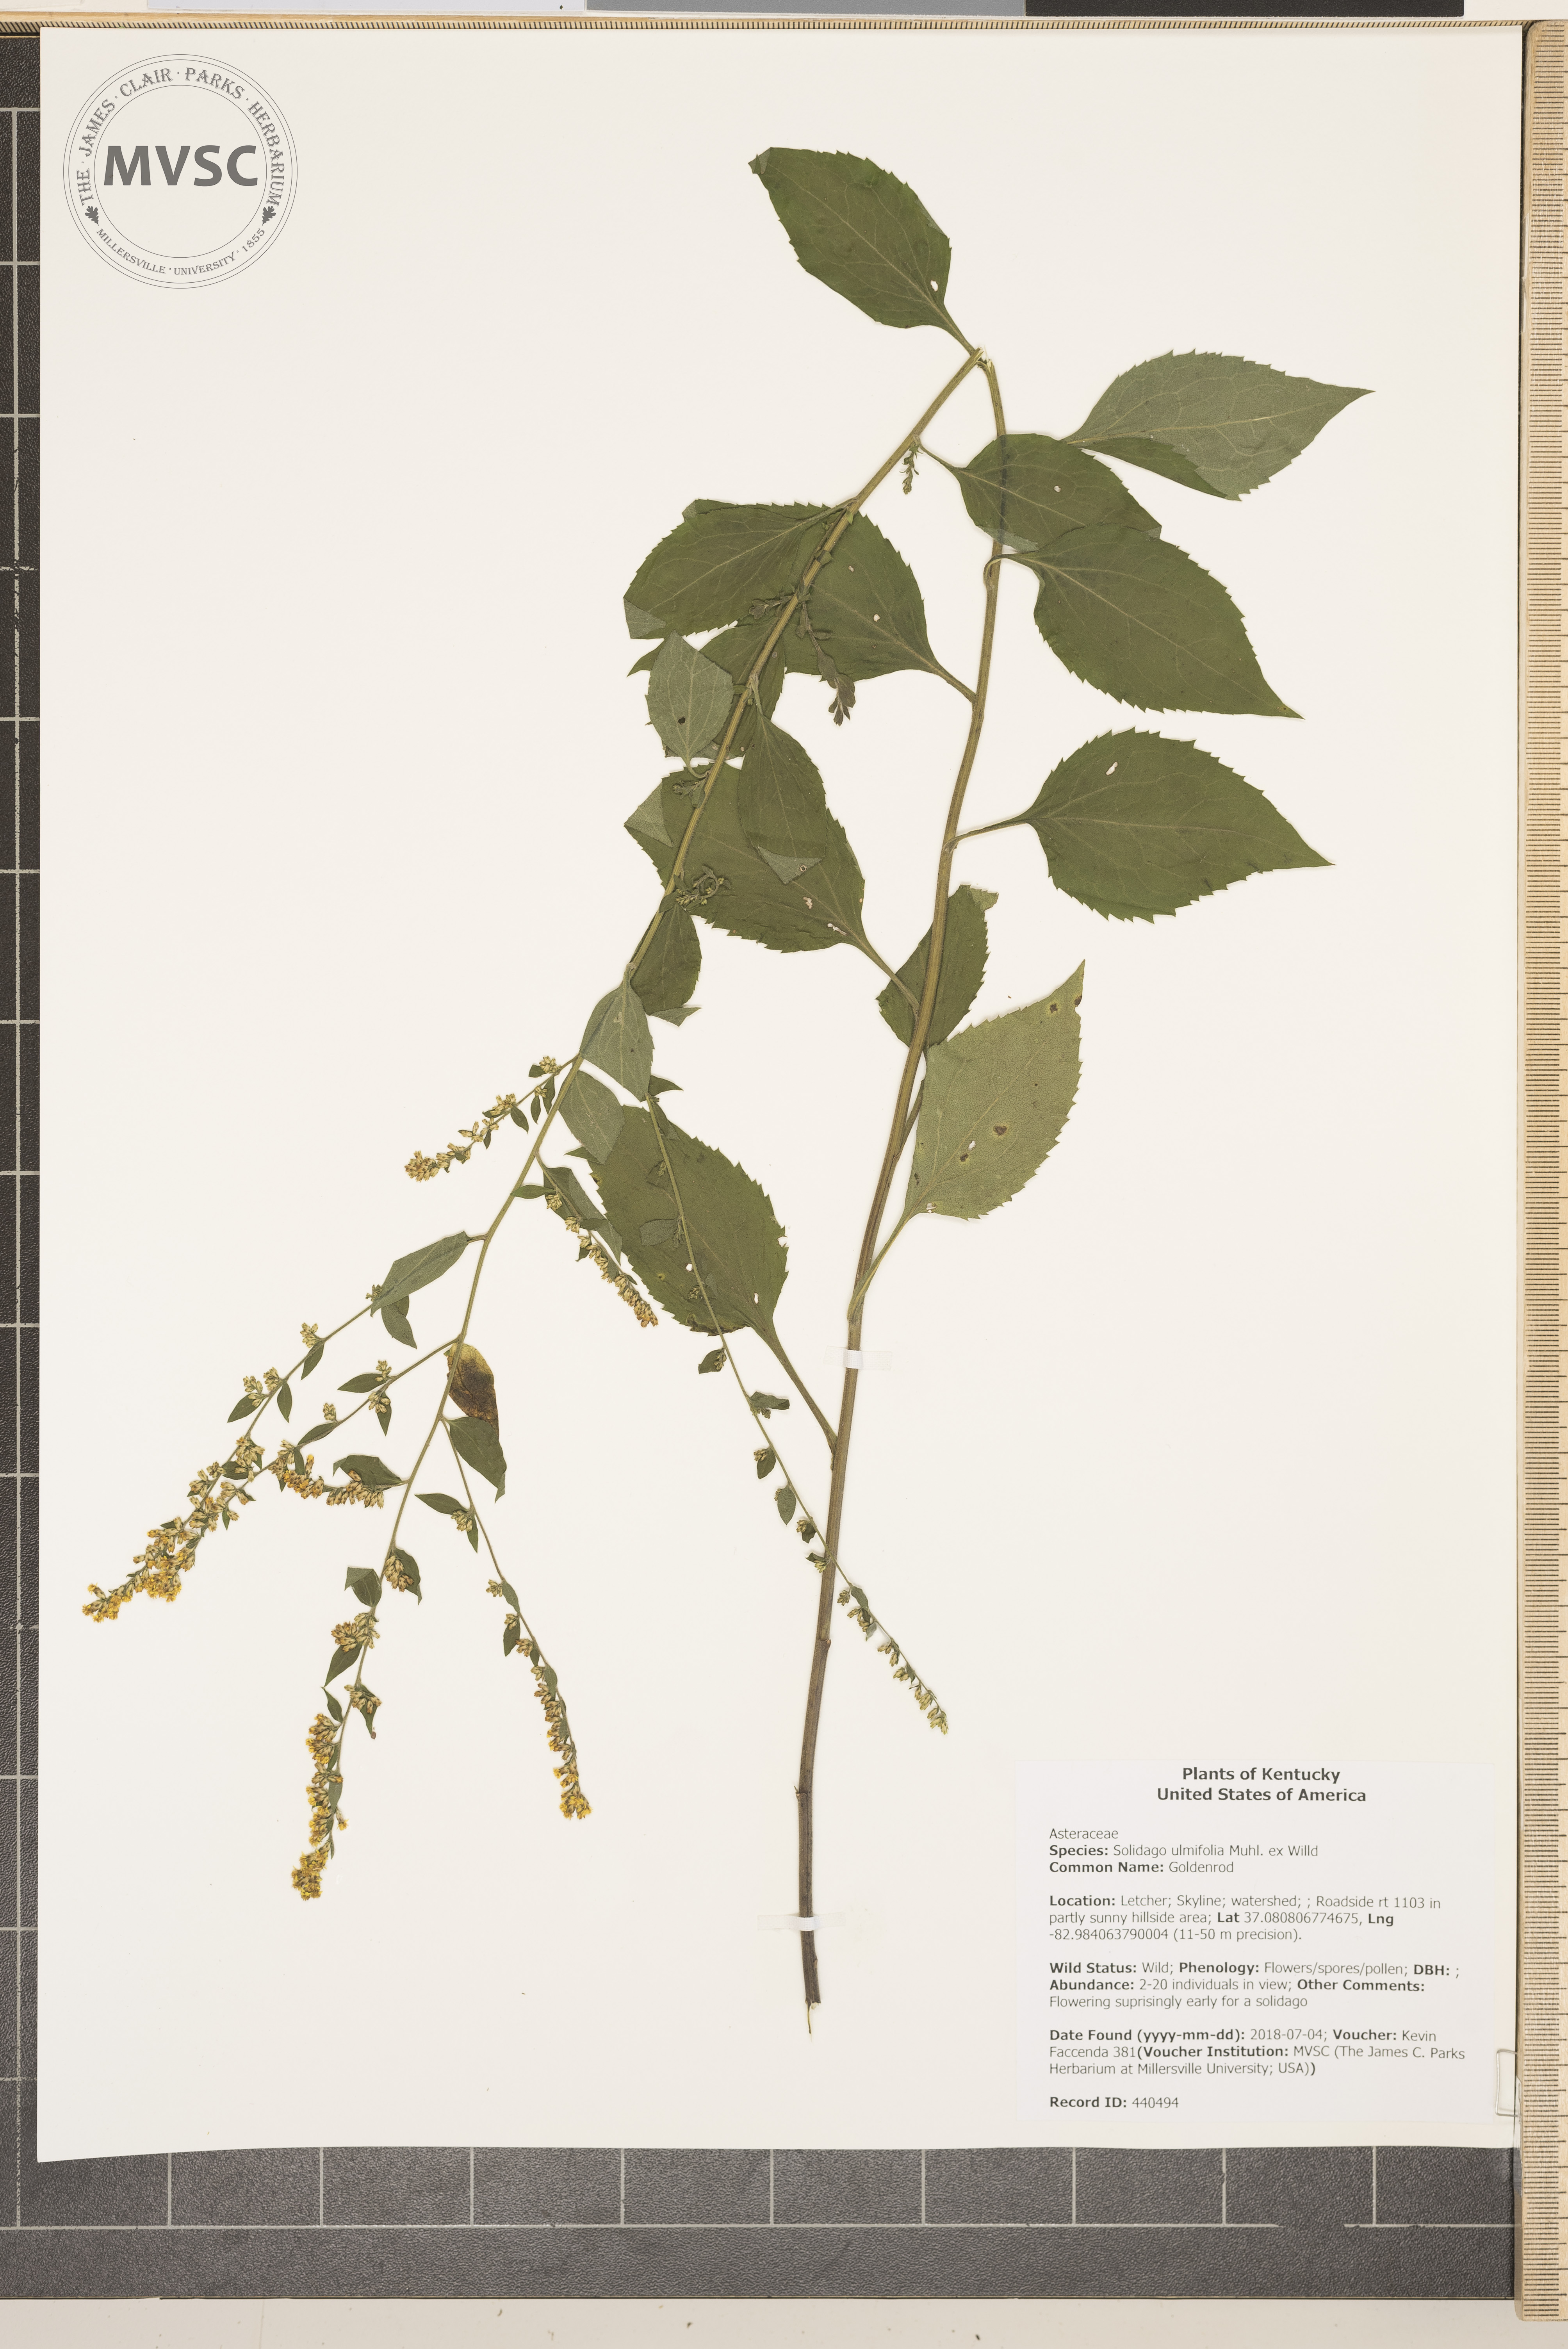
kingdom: Plantae
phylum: Tracheophyta
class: Magnoliopsida
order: Asterales
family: Asteraceae
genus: Solidago
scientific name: Solidago ulmifolia
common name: Goldenrod
